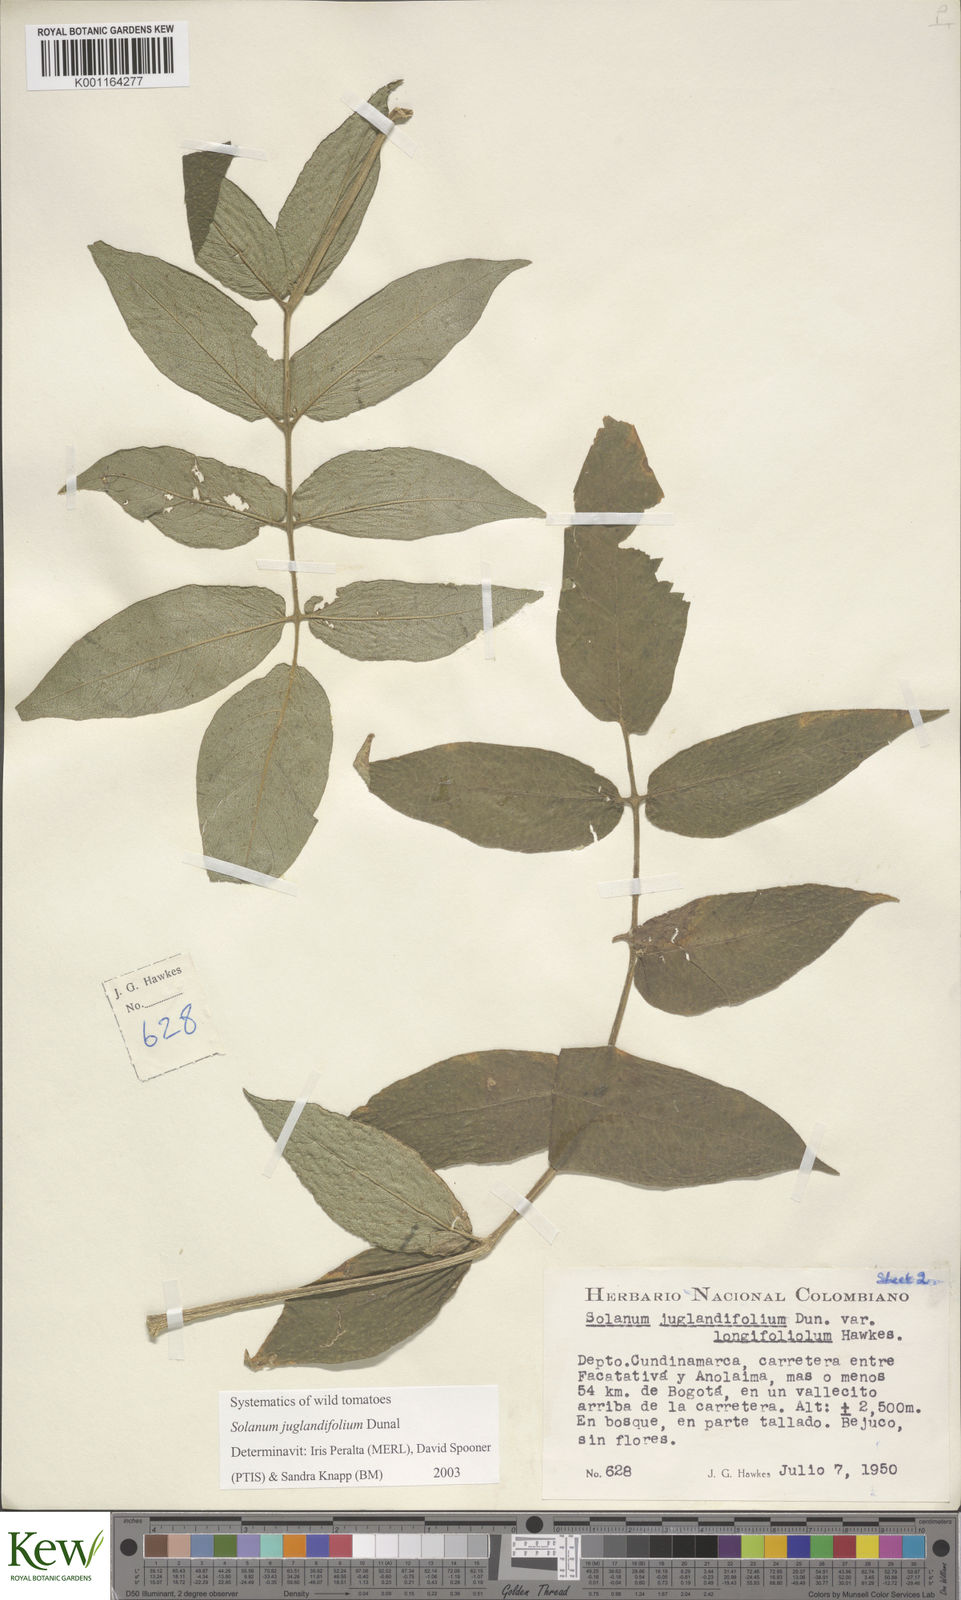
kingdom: Plantae
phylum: Tracheophyta
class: Magnoliopsida
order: Solanales
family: Solanaceae
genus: Solanum
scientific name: Solanum juglandifolium
